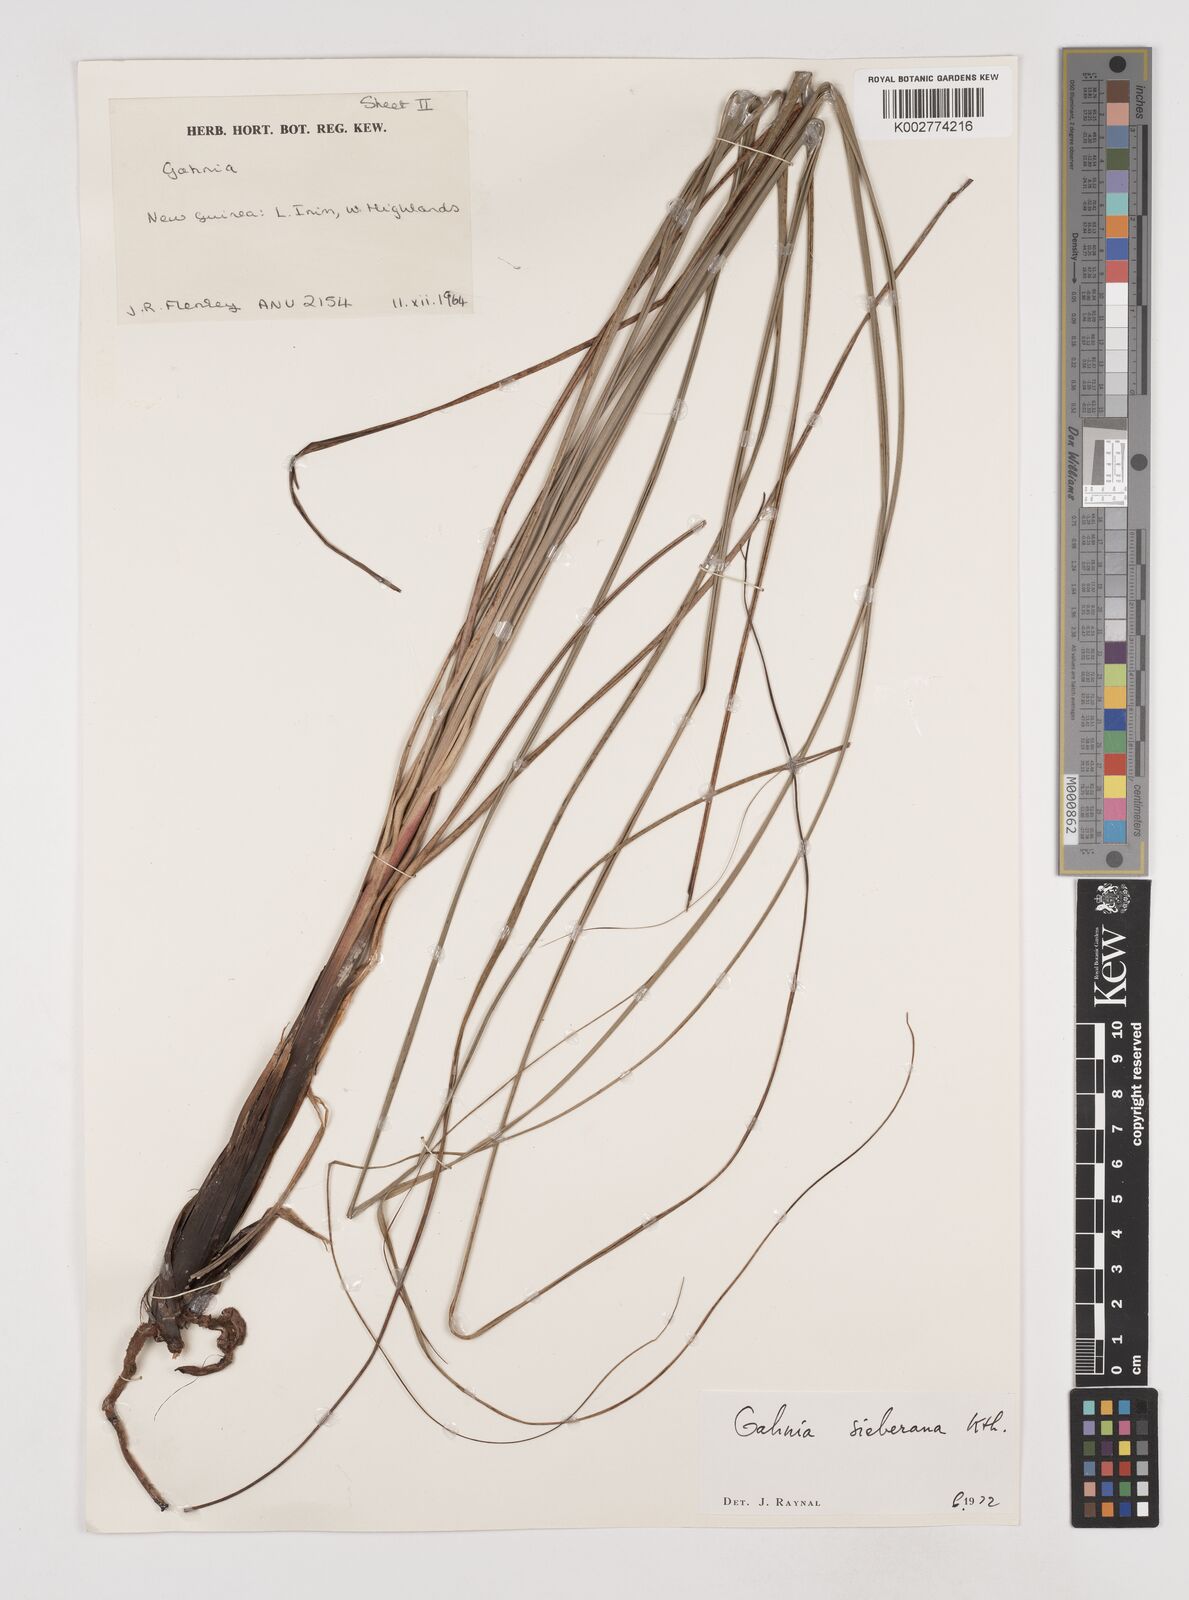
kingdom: Plantae
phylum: Tracheophyta
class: Liliopsida
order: Poales
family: Cyperaceae
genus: Gahnia
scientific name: Gahnia sieberiana
